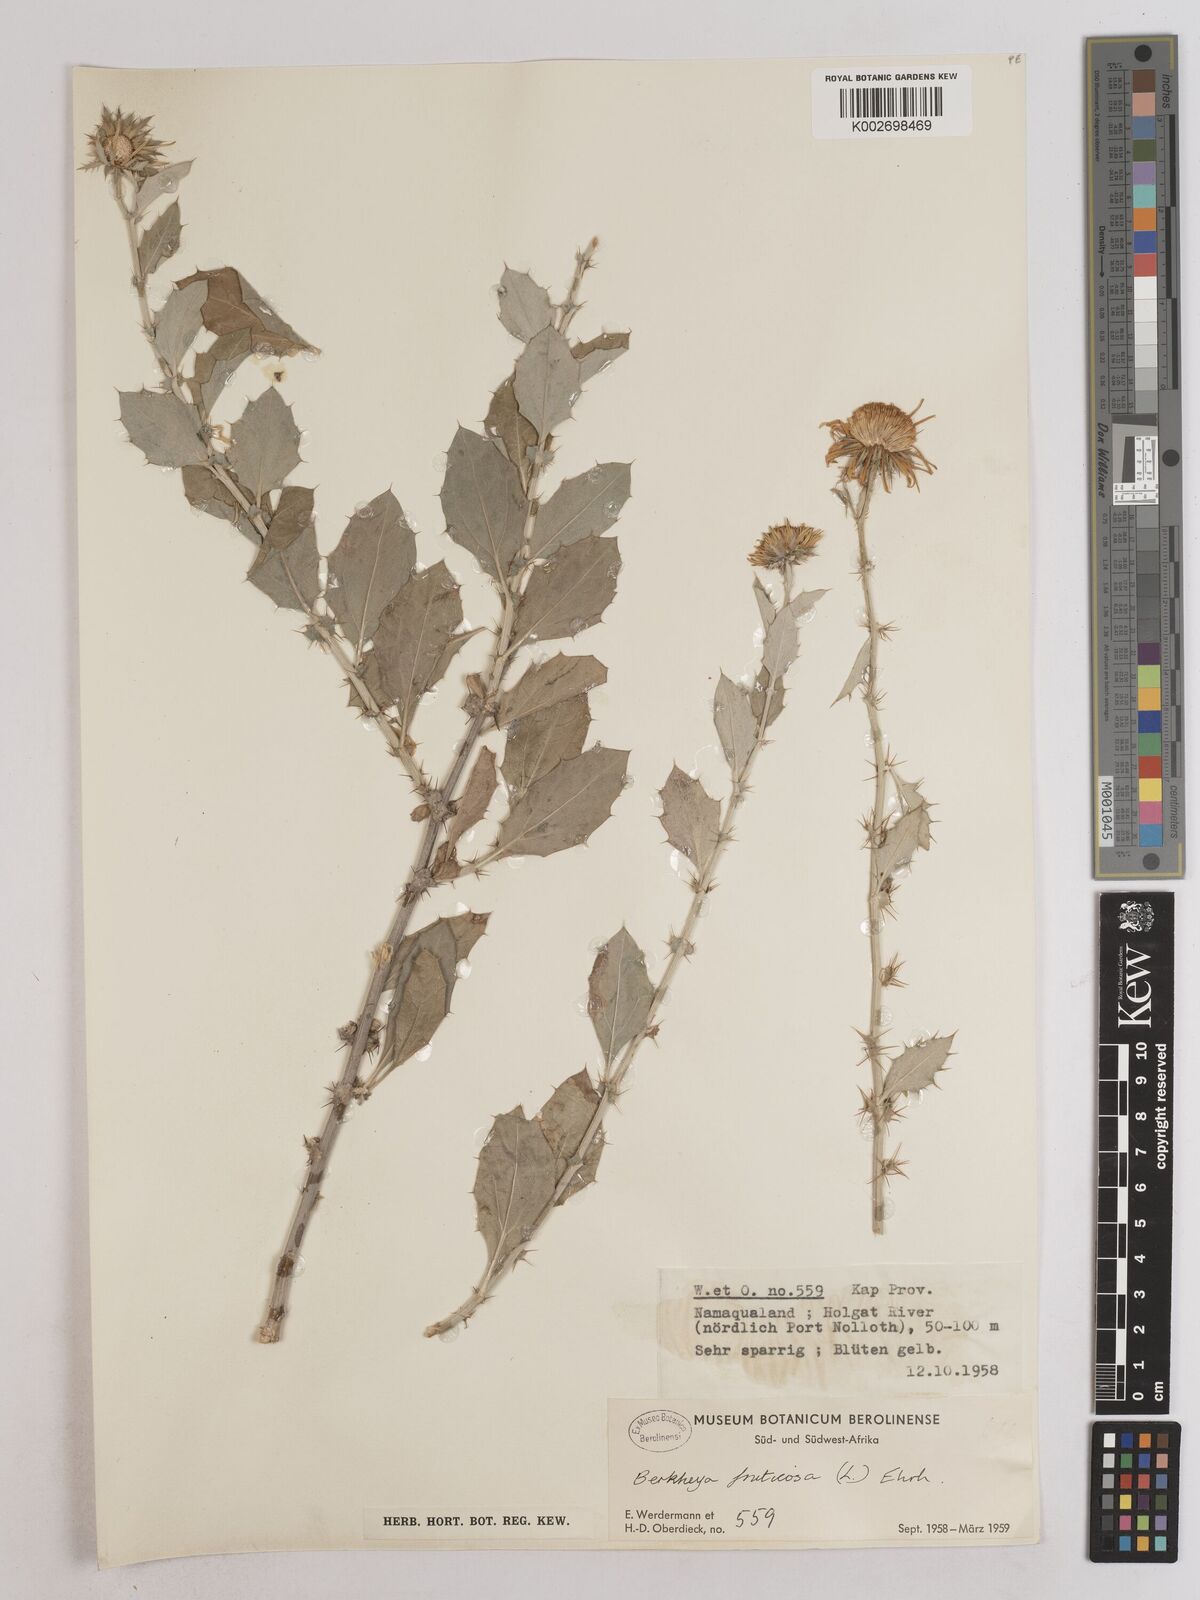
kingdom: Plantae
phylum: Tracheophyta
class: Magnoliopsida
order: Asterales
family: Asteraceae
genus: Berkheya
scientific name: Berkheya fruticosa
